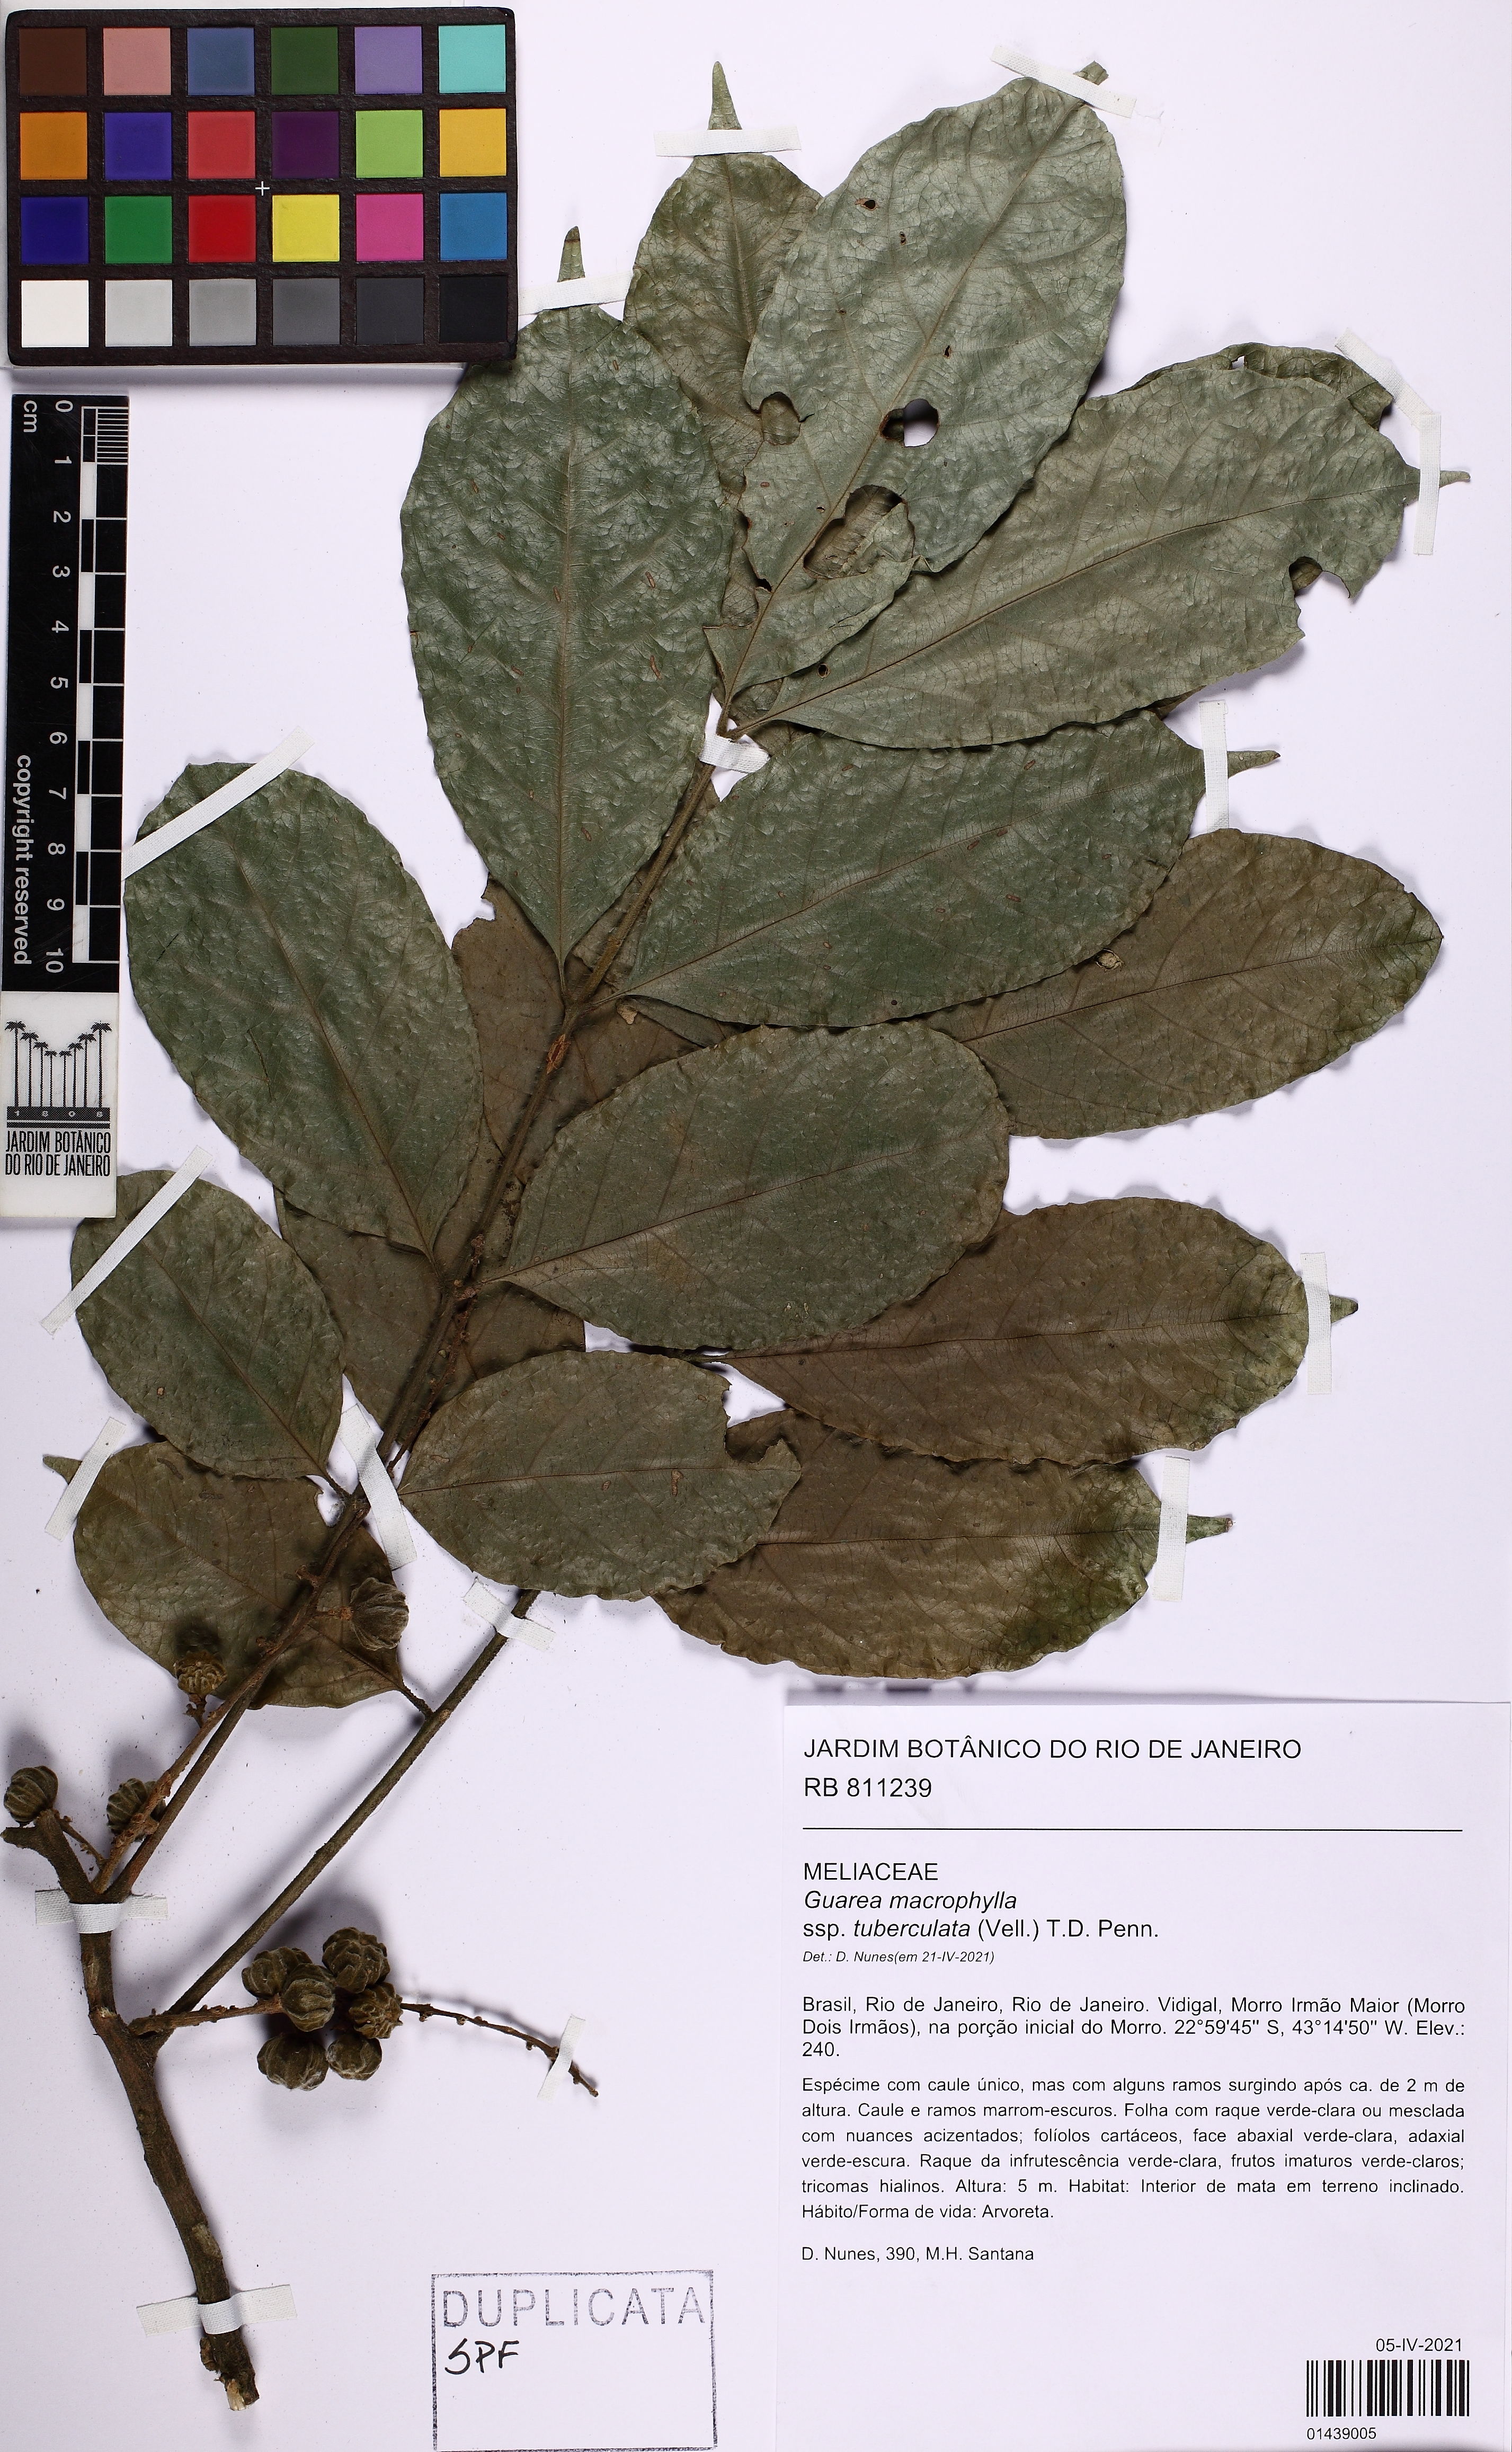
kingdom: Plantae
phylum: Tracheophyta
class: Magnoliopsida
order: Sapindales
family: Meliaceae
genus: Guarea
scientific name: Guarea macrophylla
